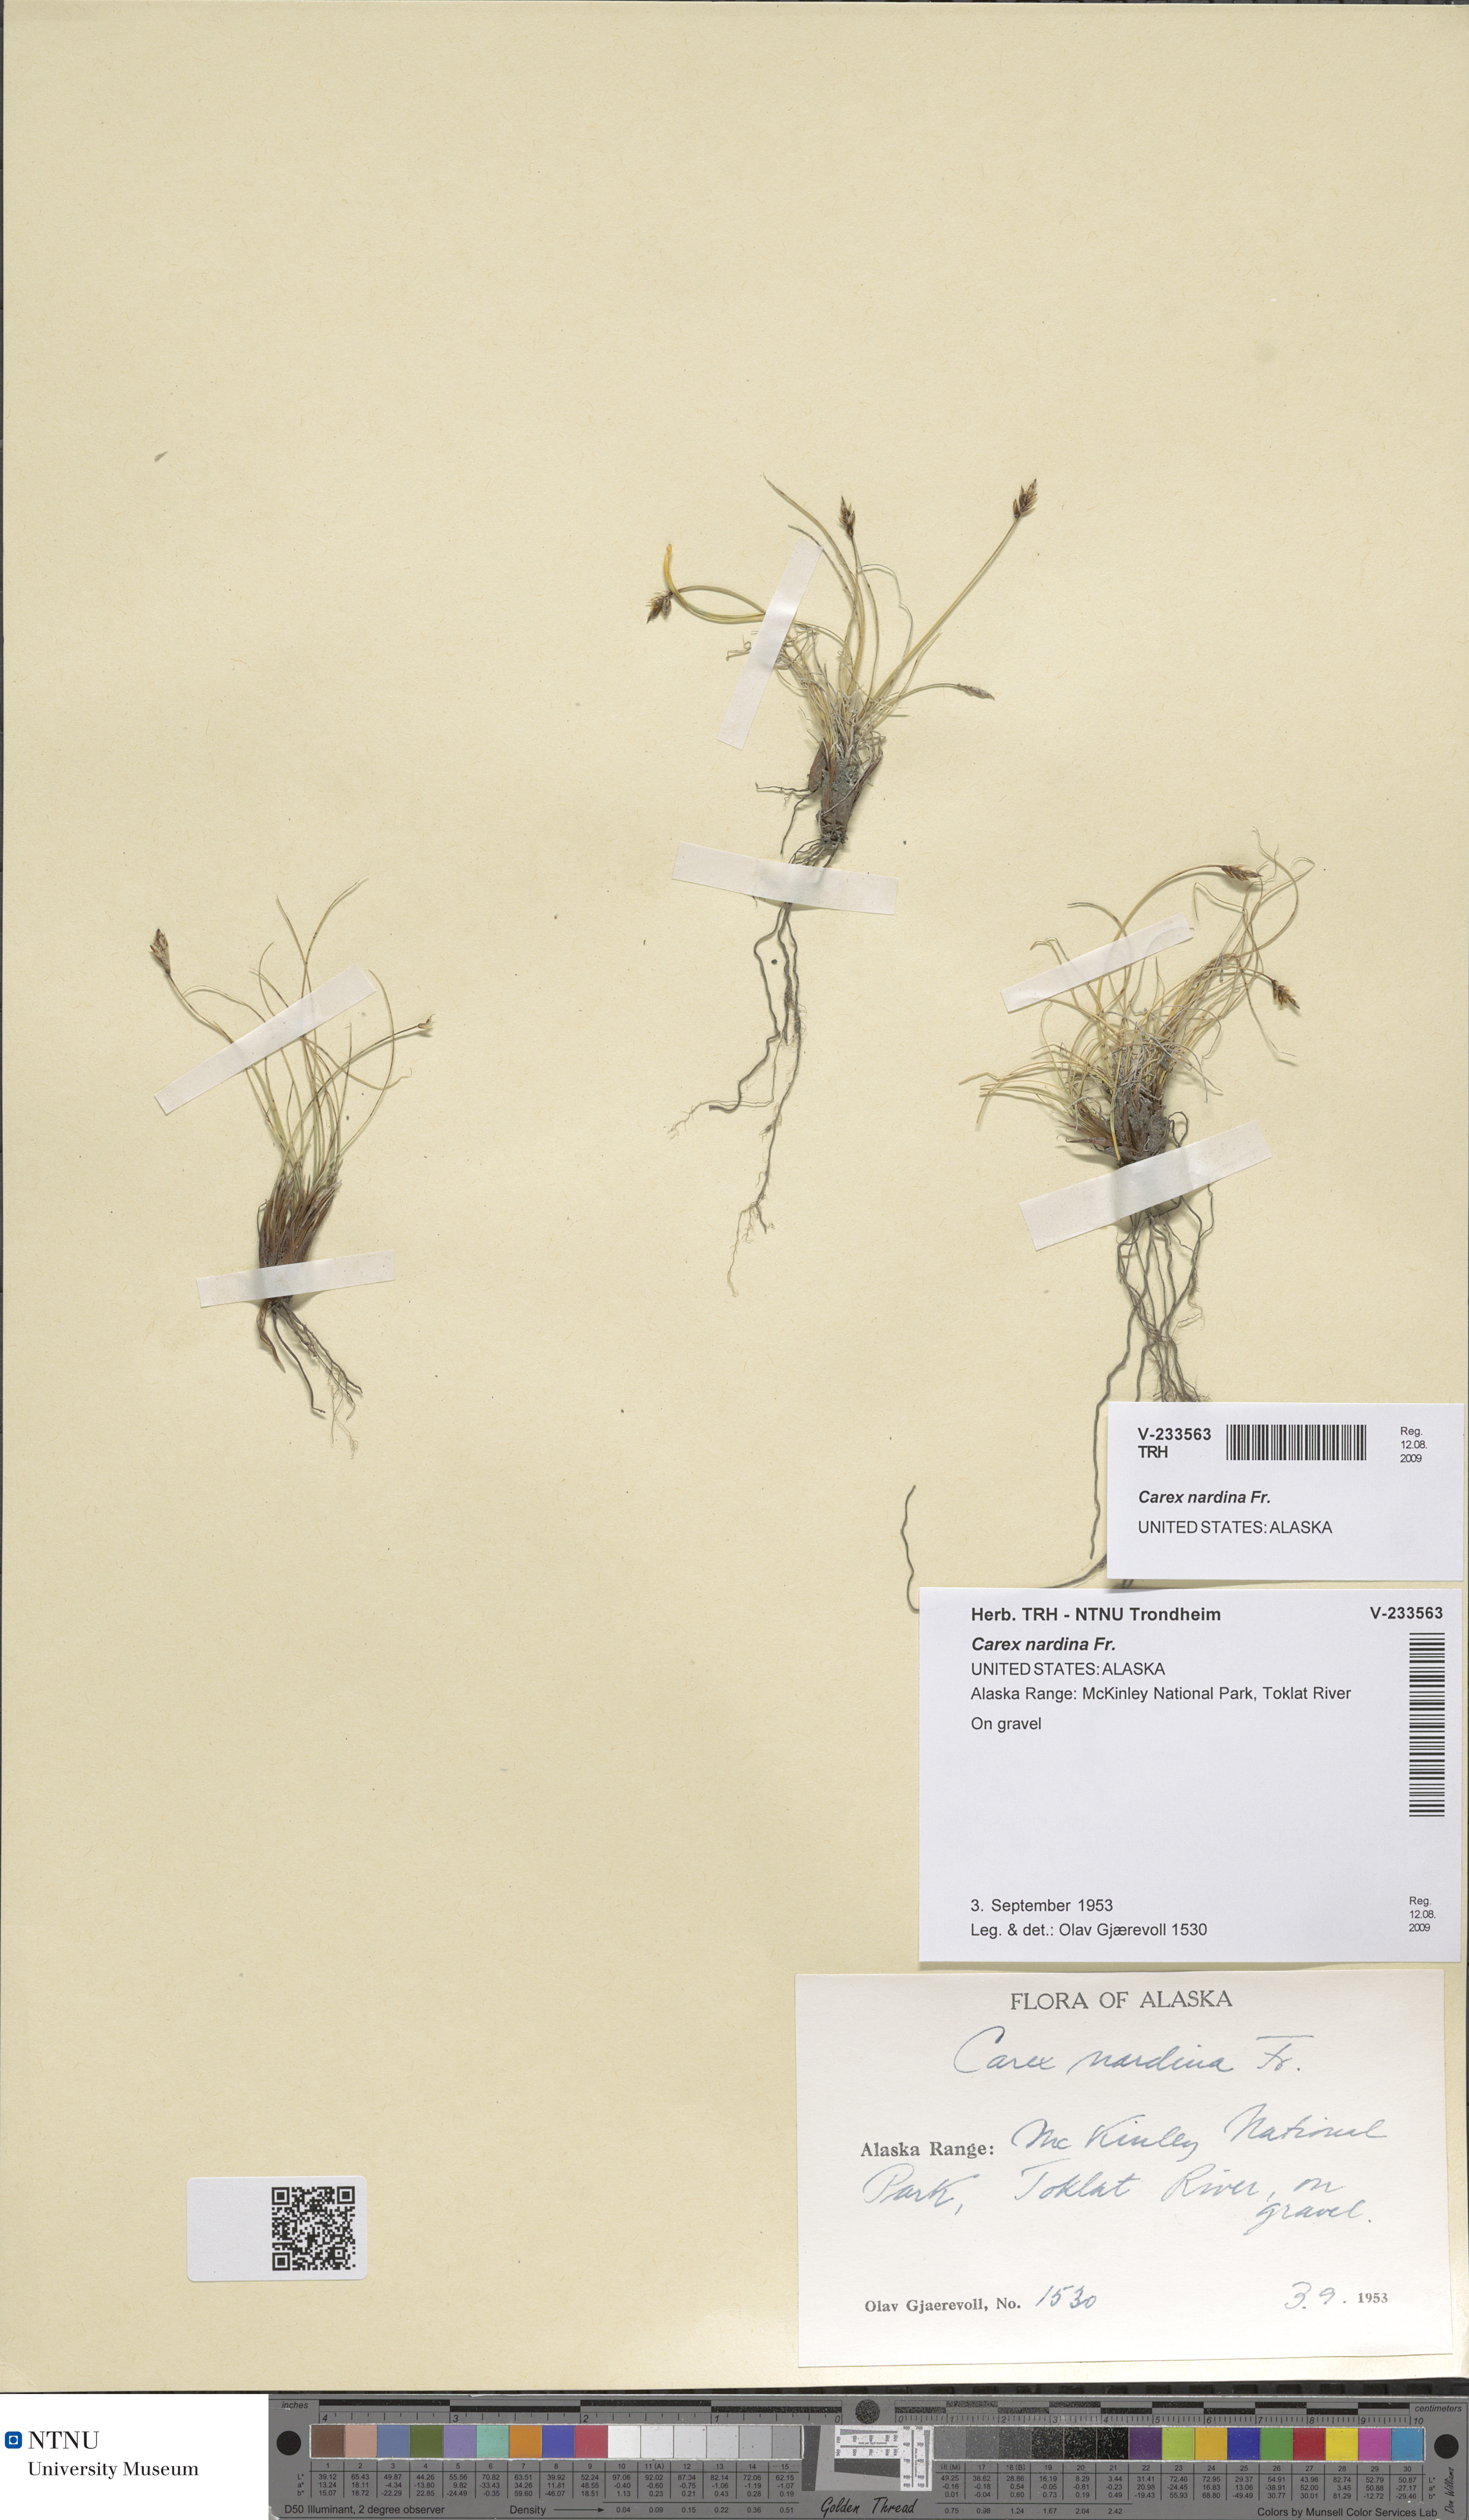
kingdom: Plantae
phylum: Tracheophyta
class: Liliopsida
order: Poales
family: Cyperaceae
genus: Carex
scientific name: Carex nardina
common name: Nard sedge
